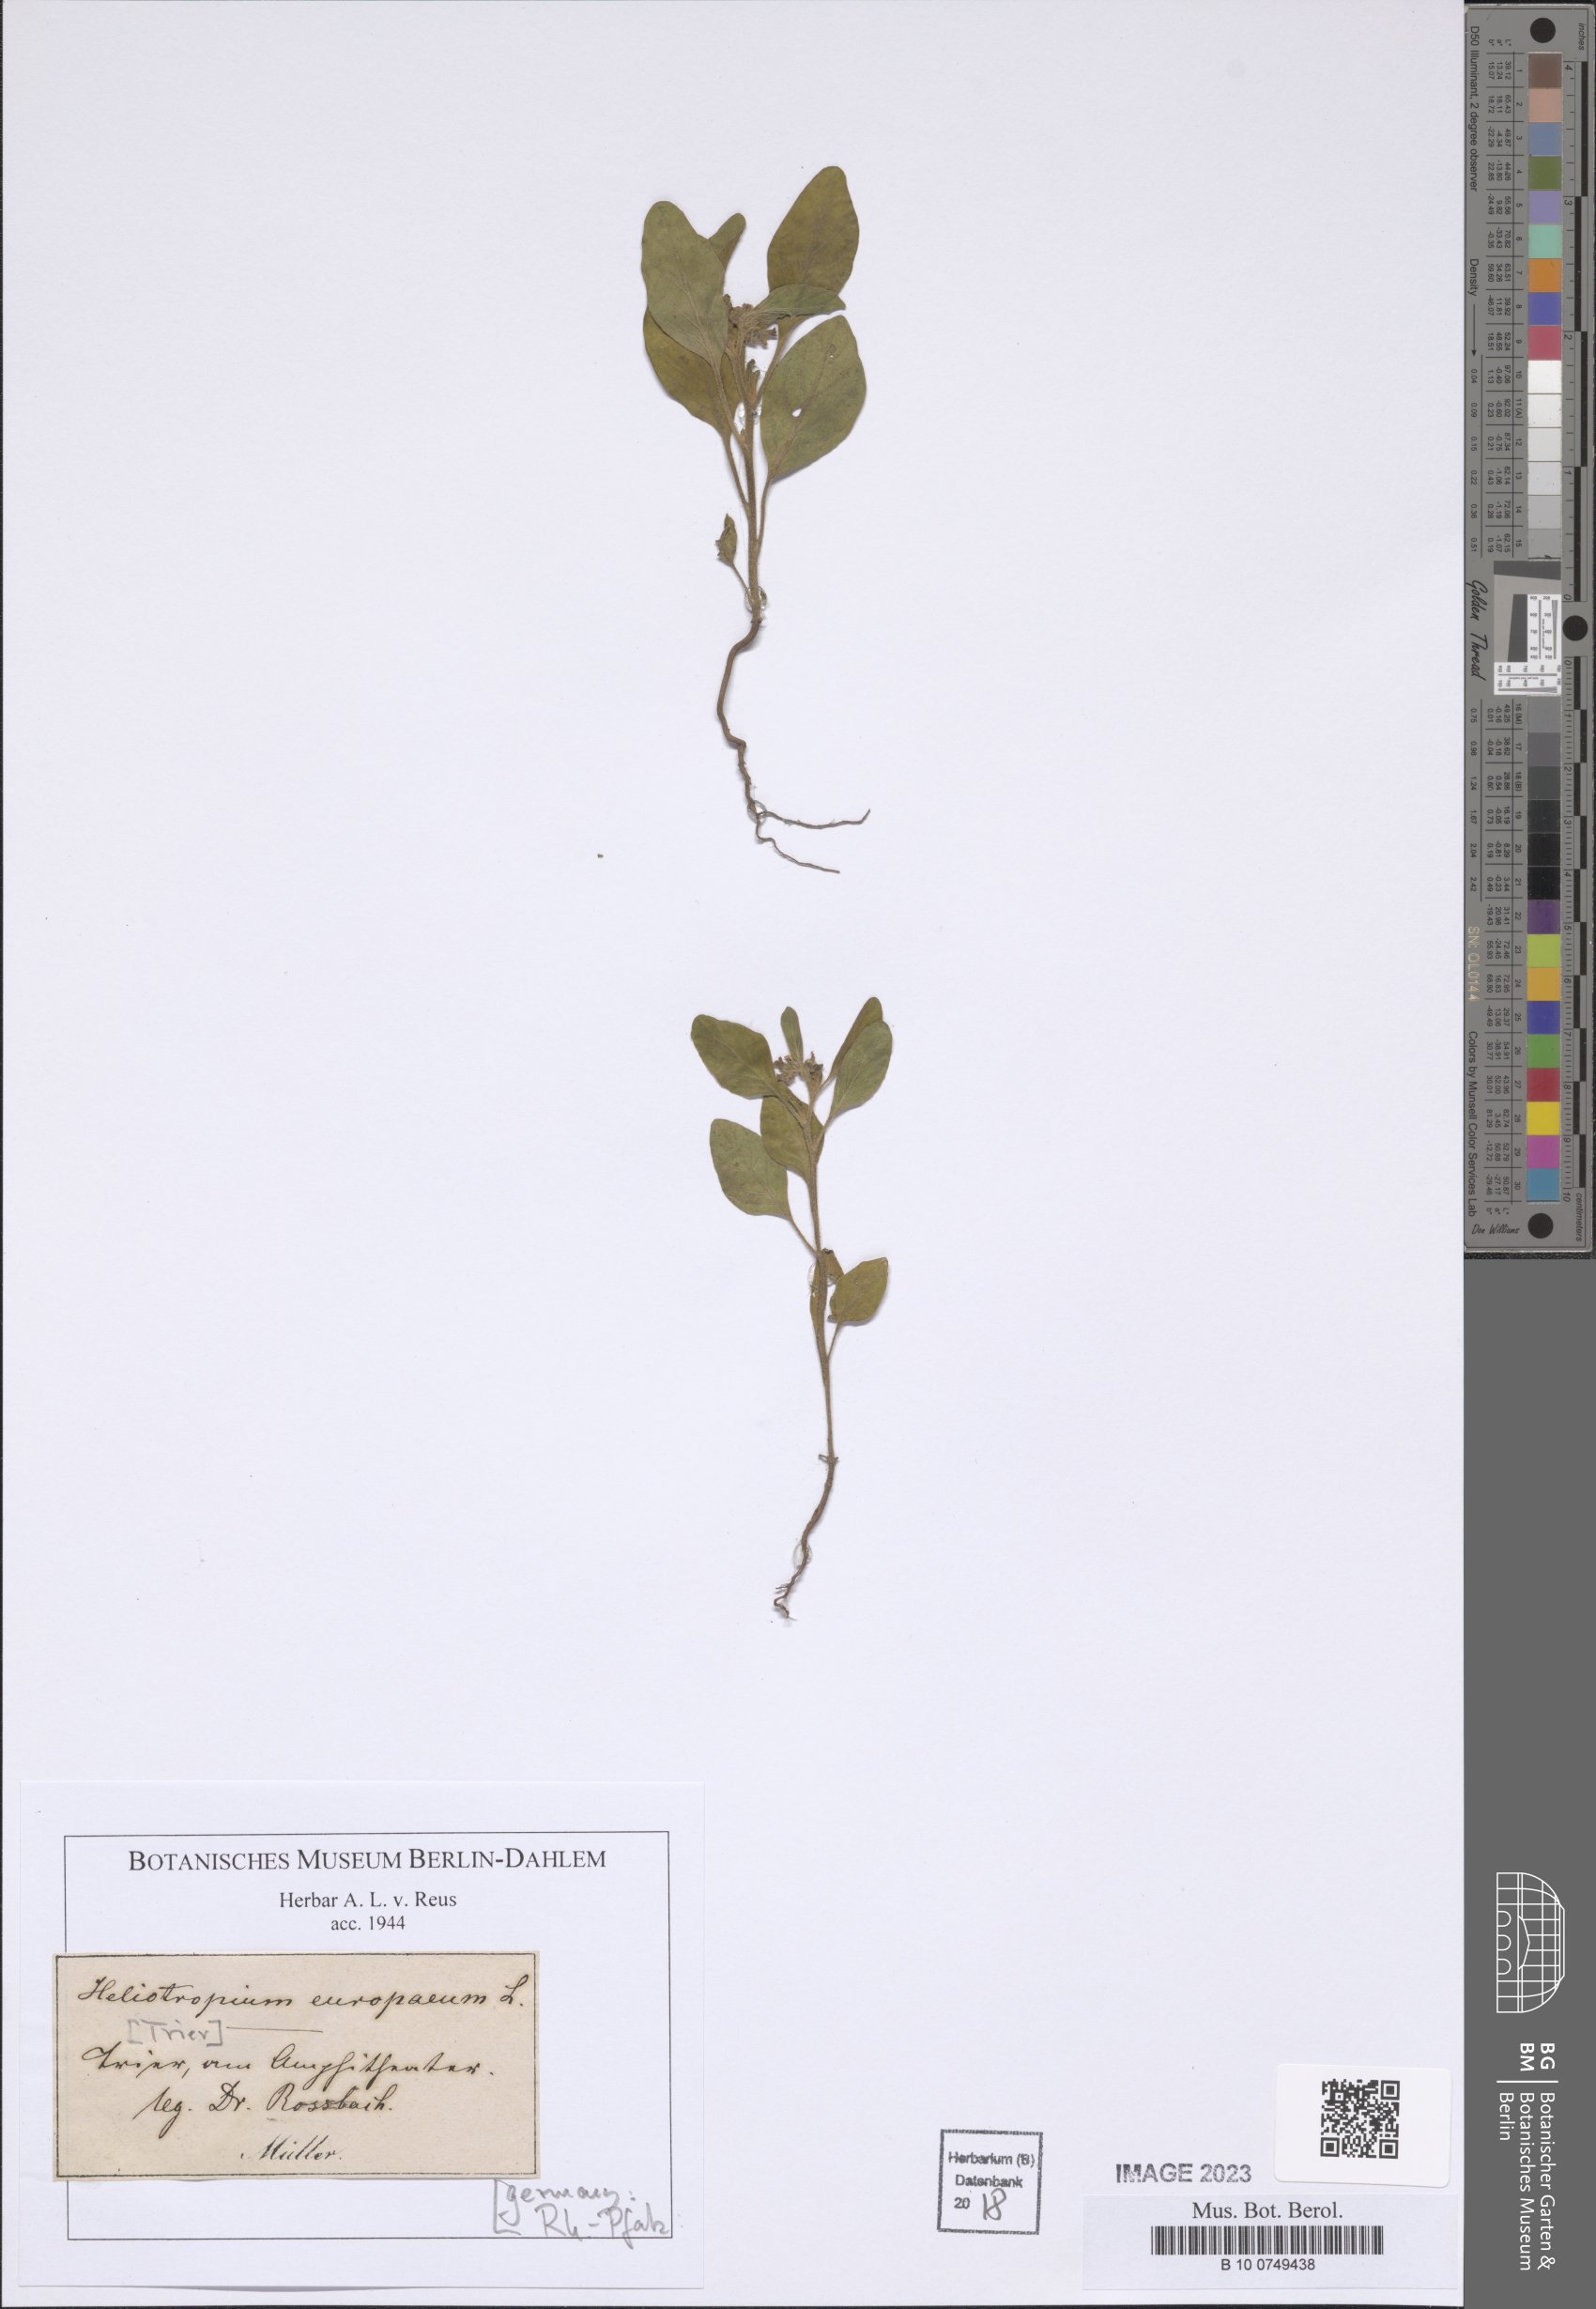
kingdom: Plantae
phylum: Tracheophyta
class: Magnoliopsida
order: Boraginales
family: Heliotropiaceae
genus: Heliotropium
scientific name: Heliotropium europaeum
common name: European heliotrope
